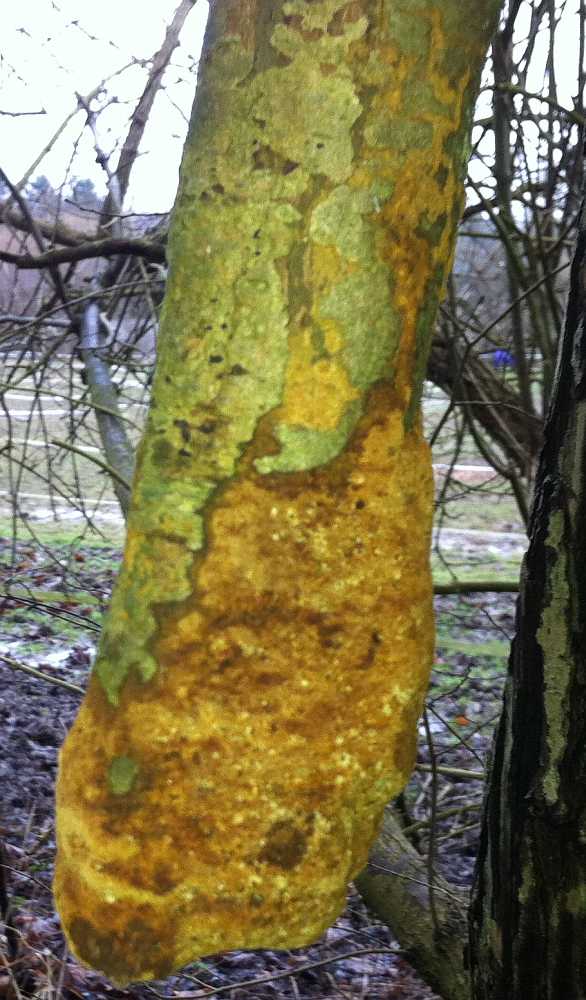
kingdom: Fungi
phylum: Basidiomycota
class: Agaricomycetes
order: Hymenochaetales
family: Hymenochaetaceae
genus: Fuscoporia
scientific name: Fuscoporia ferruginosa
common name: rustbrun ildporesvamp
